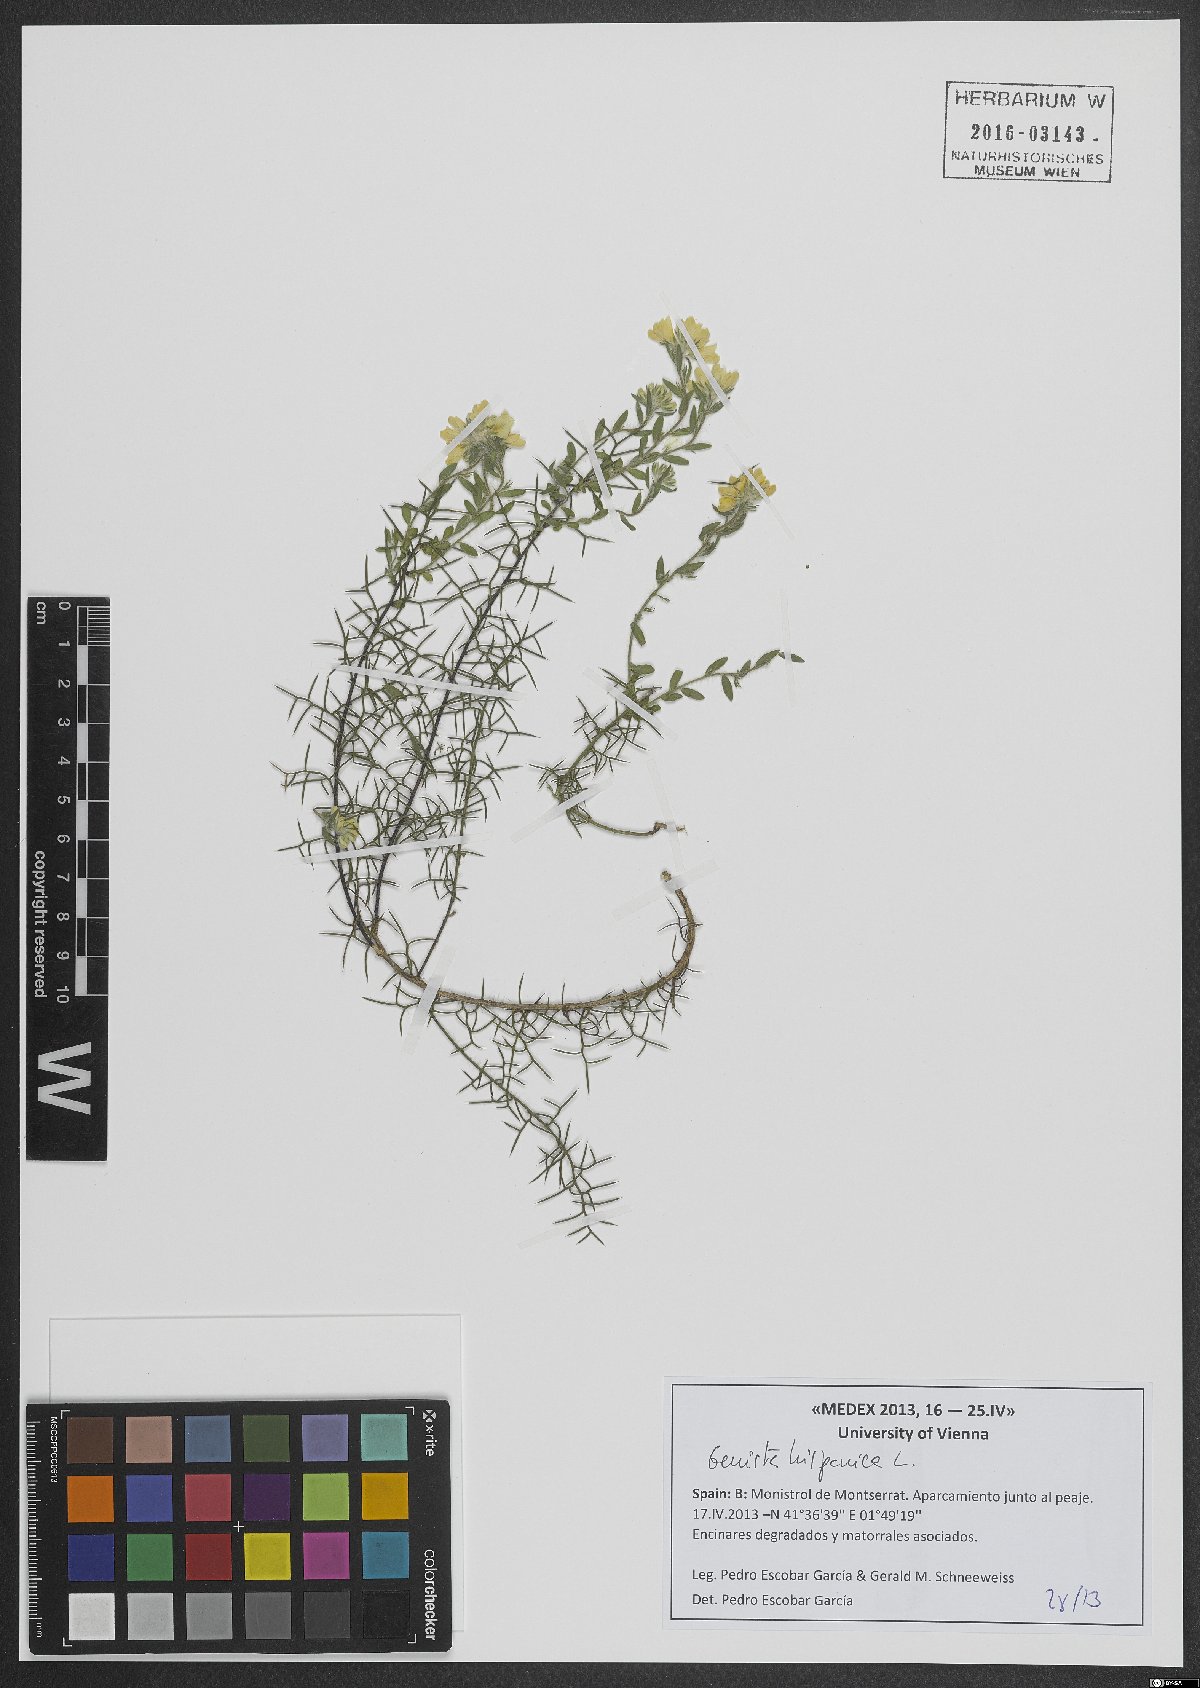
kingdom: Plantae
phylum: Tracheophyta
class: Magnoliopsida
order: Fabales
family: Fabaceae
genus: Genista
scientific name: Genista hispanica
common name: Spanish gorse
